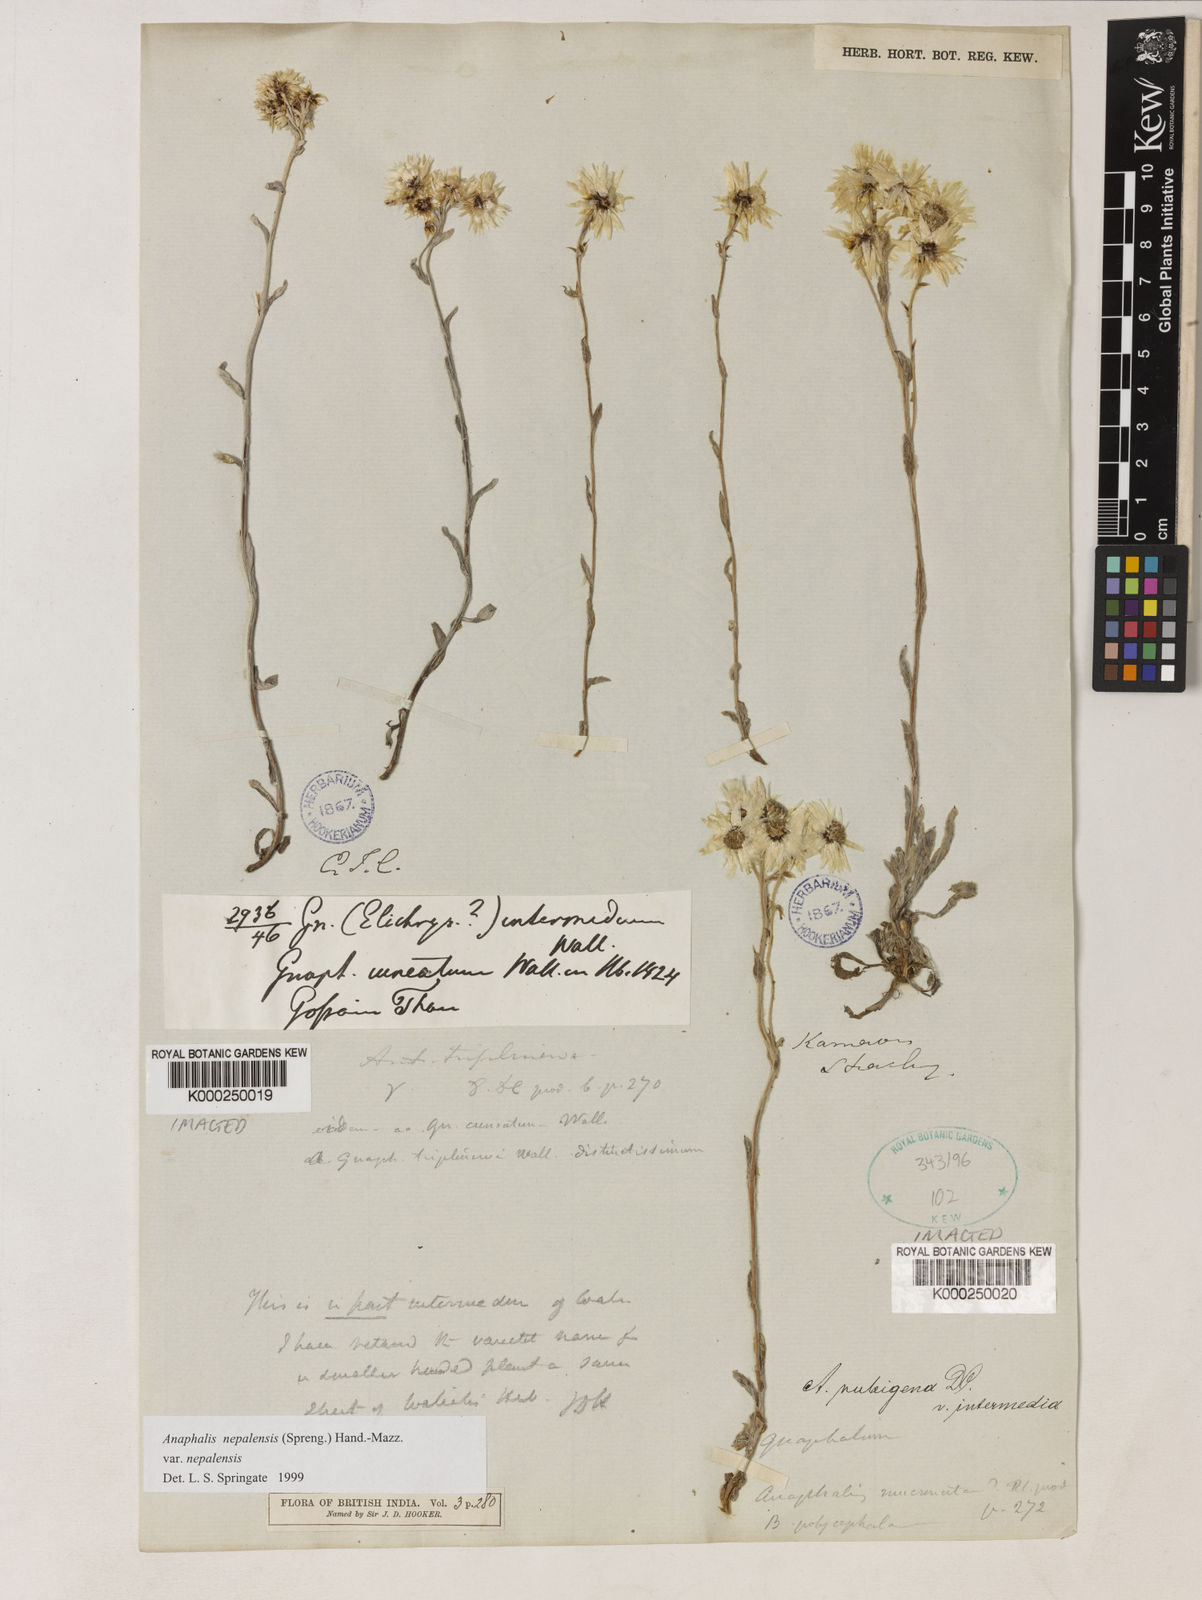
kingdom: Plantae
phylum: Tracheophyta
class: Magnoliopsida
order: Asterales
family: Asteraceae
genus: Anaphalioides
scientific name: Anaphalioides trinervis
